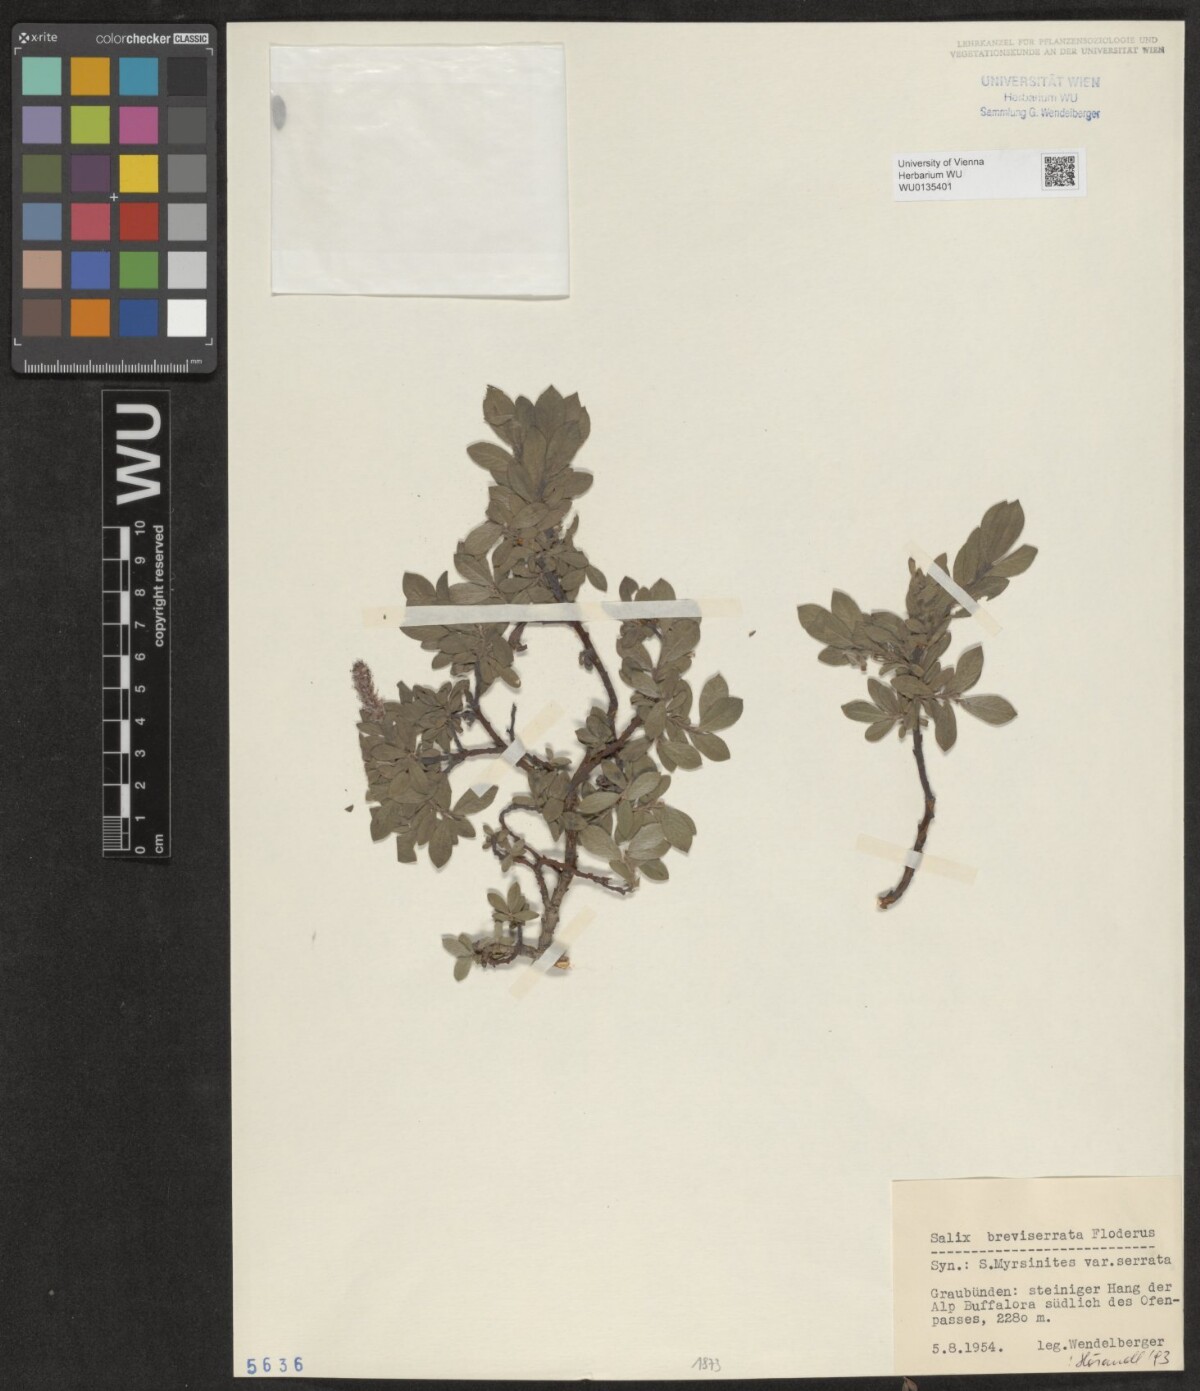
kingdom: Plantae
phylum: Tracheophyta
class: Magnoliopsida
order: Malpighiales
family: Salicaceae
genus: Salix
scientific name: Salix breviserrata
